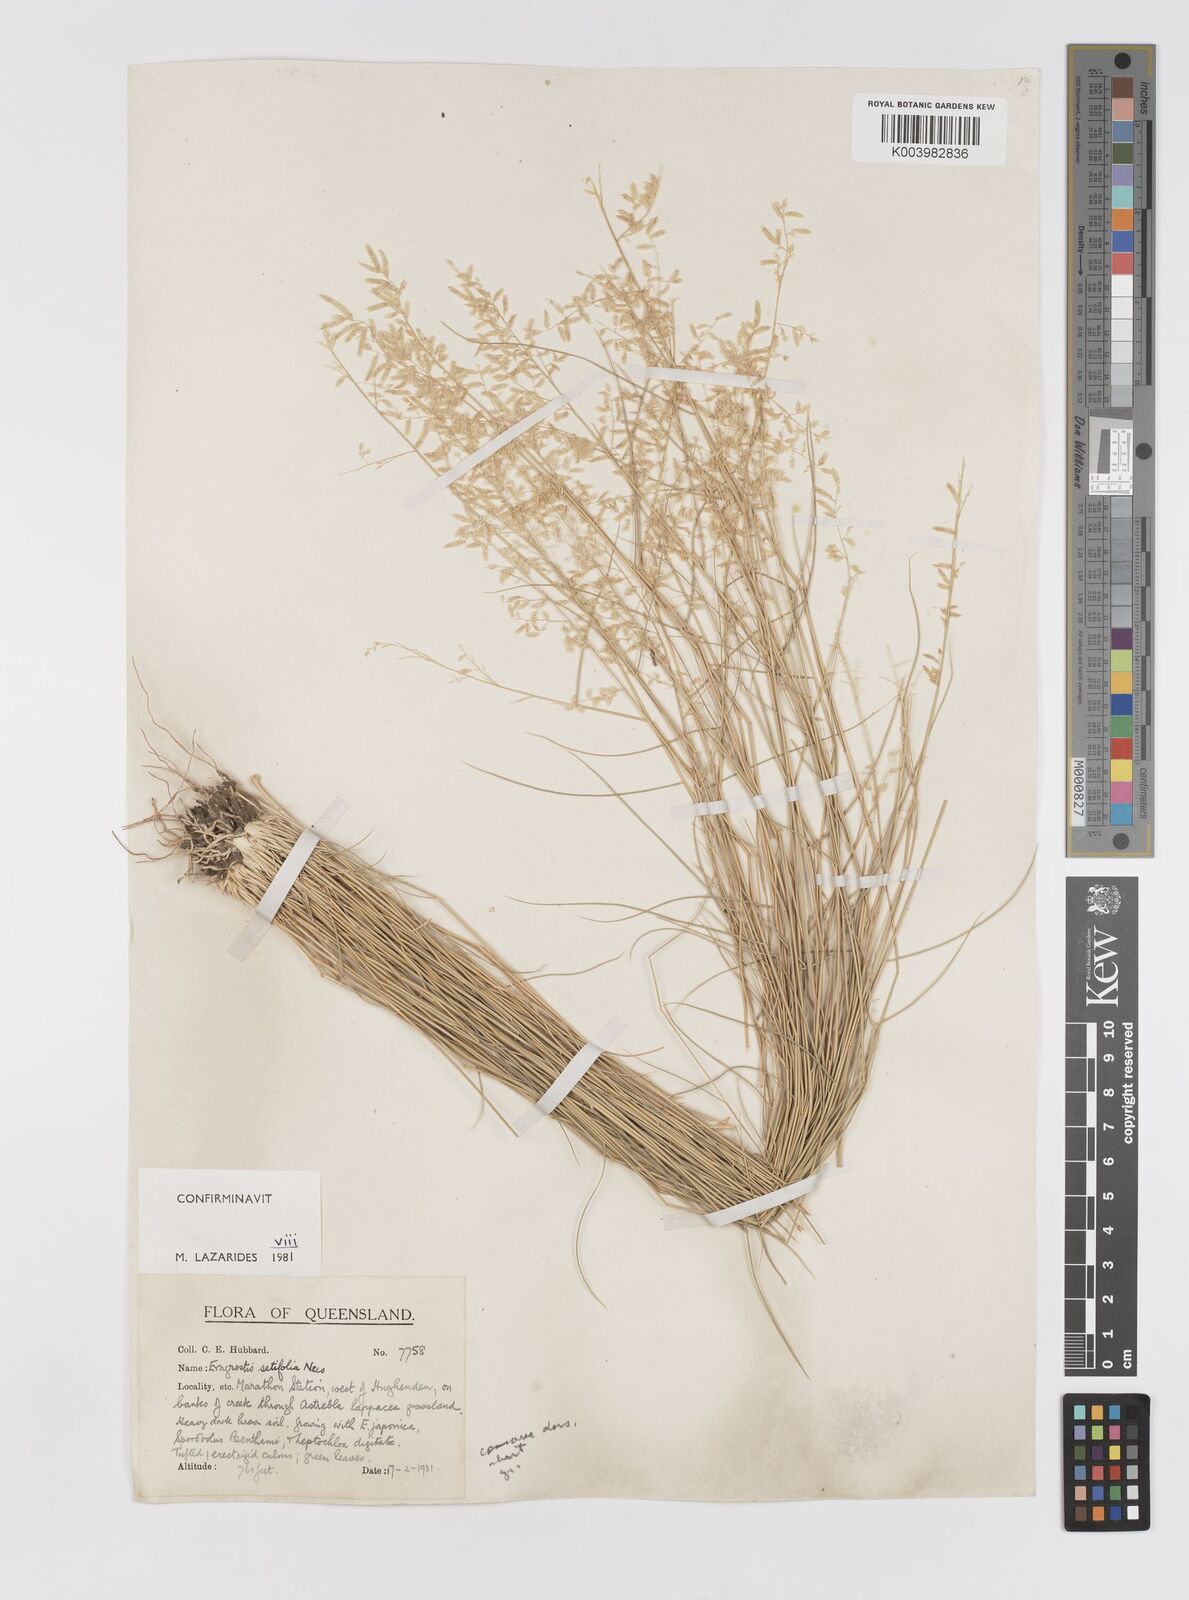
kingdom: Plantae
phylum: Tracheophyta
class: Liliopsida
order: Poales
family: Poaceae
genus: Eragrostis
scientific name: Eragrostis setifolia
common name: Bristleleaf lovegrass
